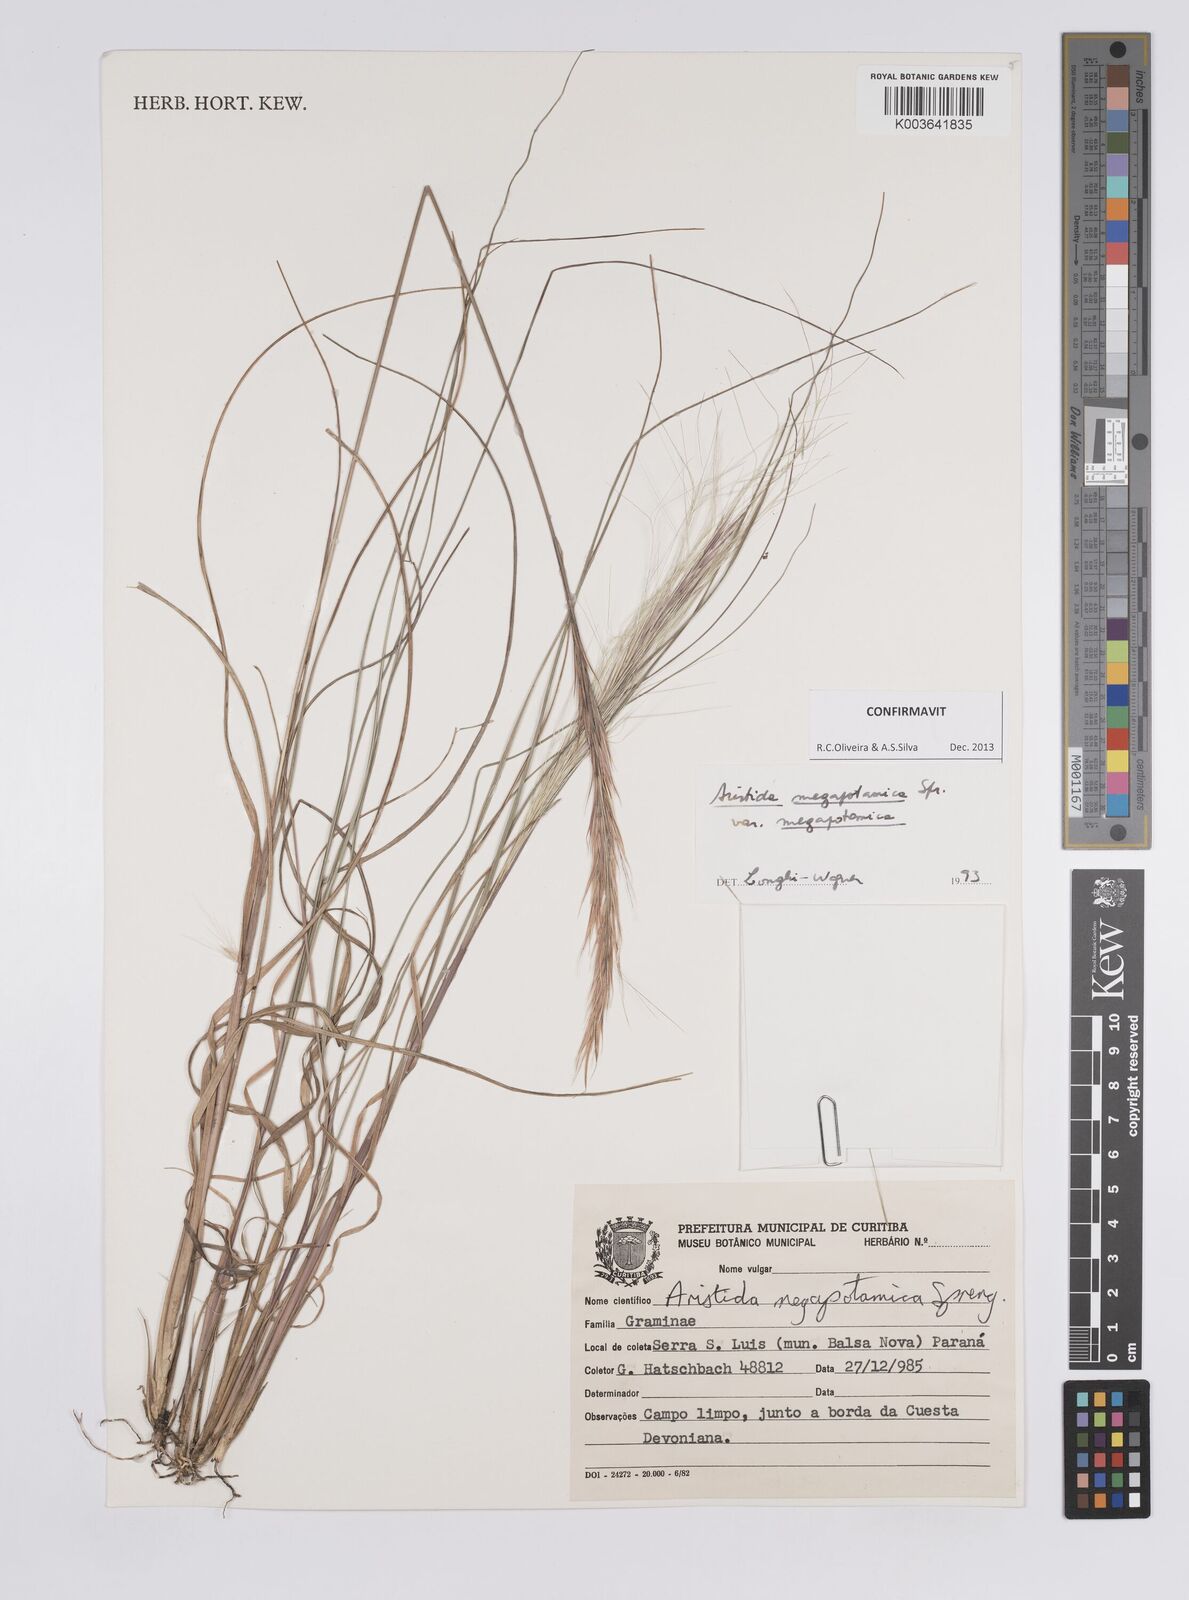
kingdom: Plantae
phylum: Tracheophyta
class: Liliopsida
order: Poales
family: Poaceae
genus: Aristida
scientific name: Aristida megapotamica
